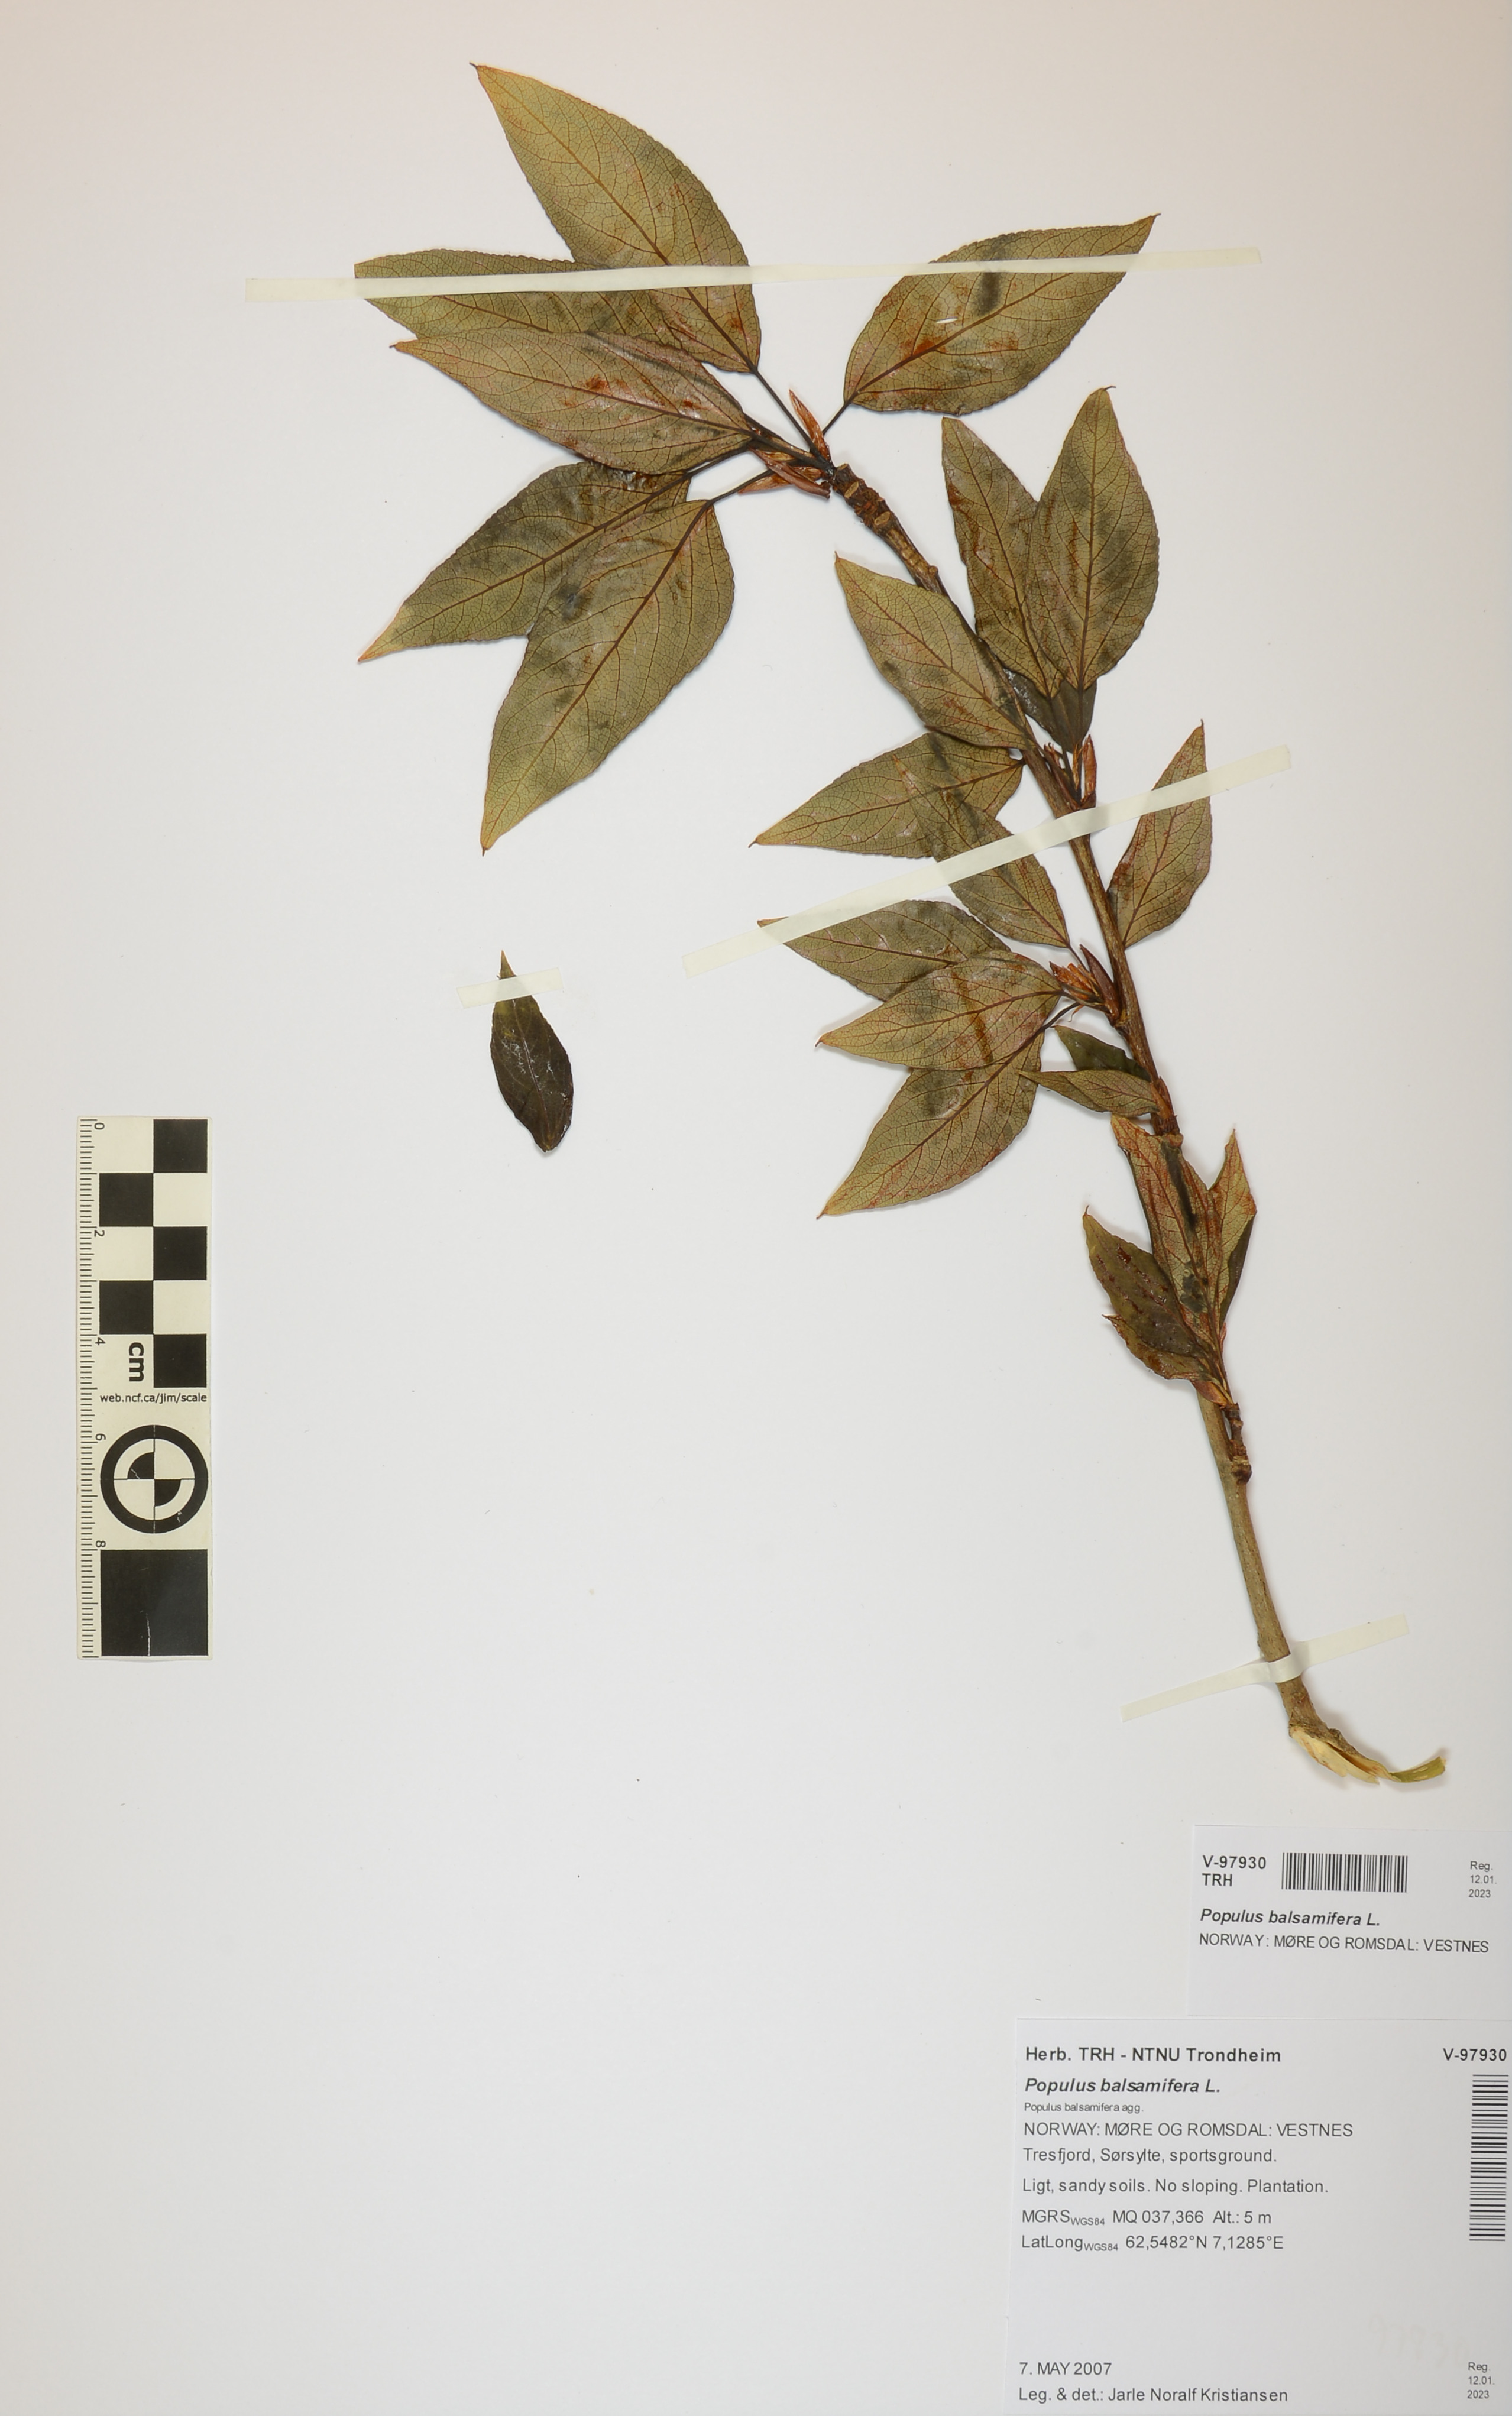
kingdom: Plantae
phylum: Tracheophyta
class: Magnoliopsida
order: Malpighiales
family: Salicaceae
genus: Populus
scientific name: Populus balsamifera
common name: Balsam poplar
